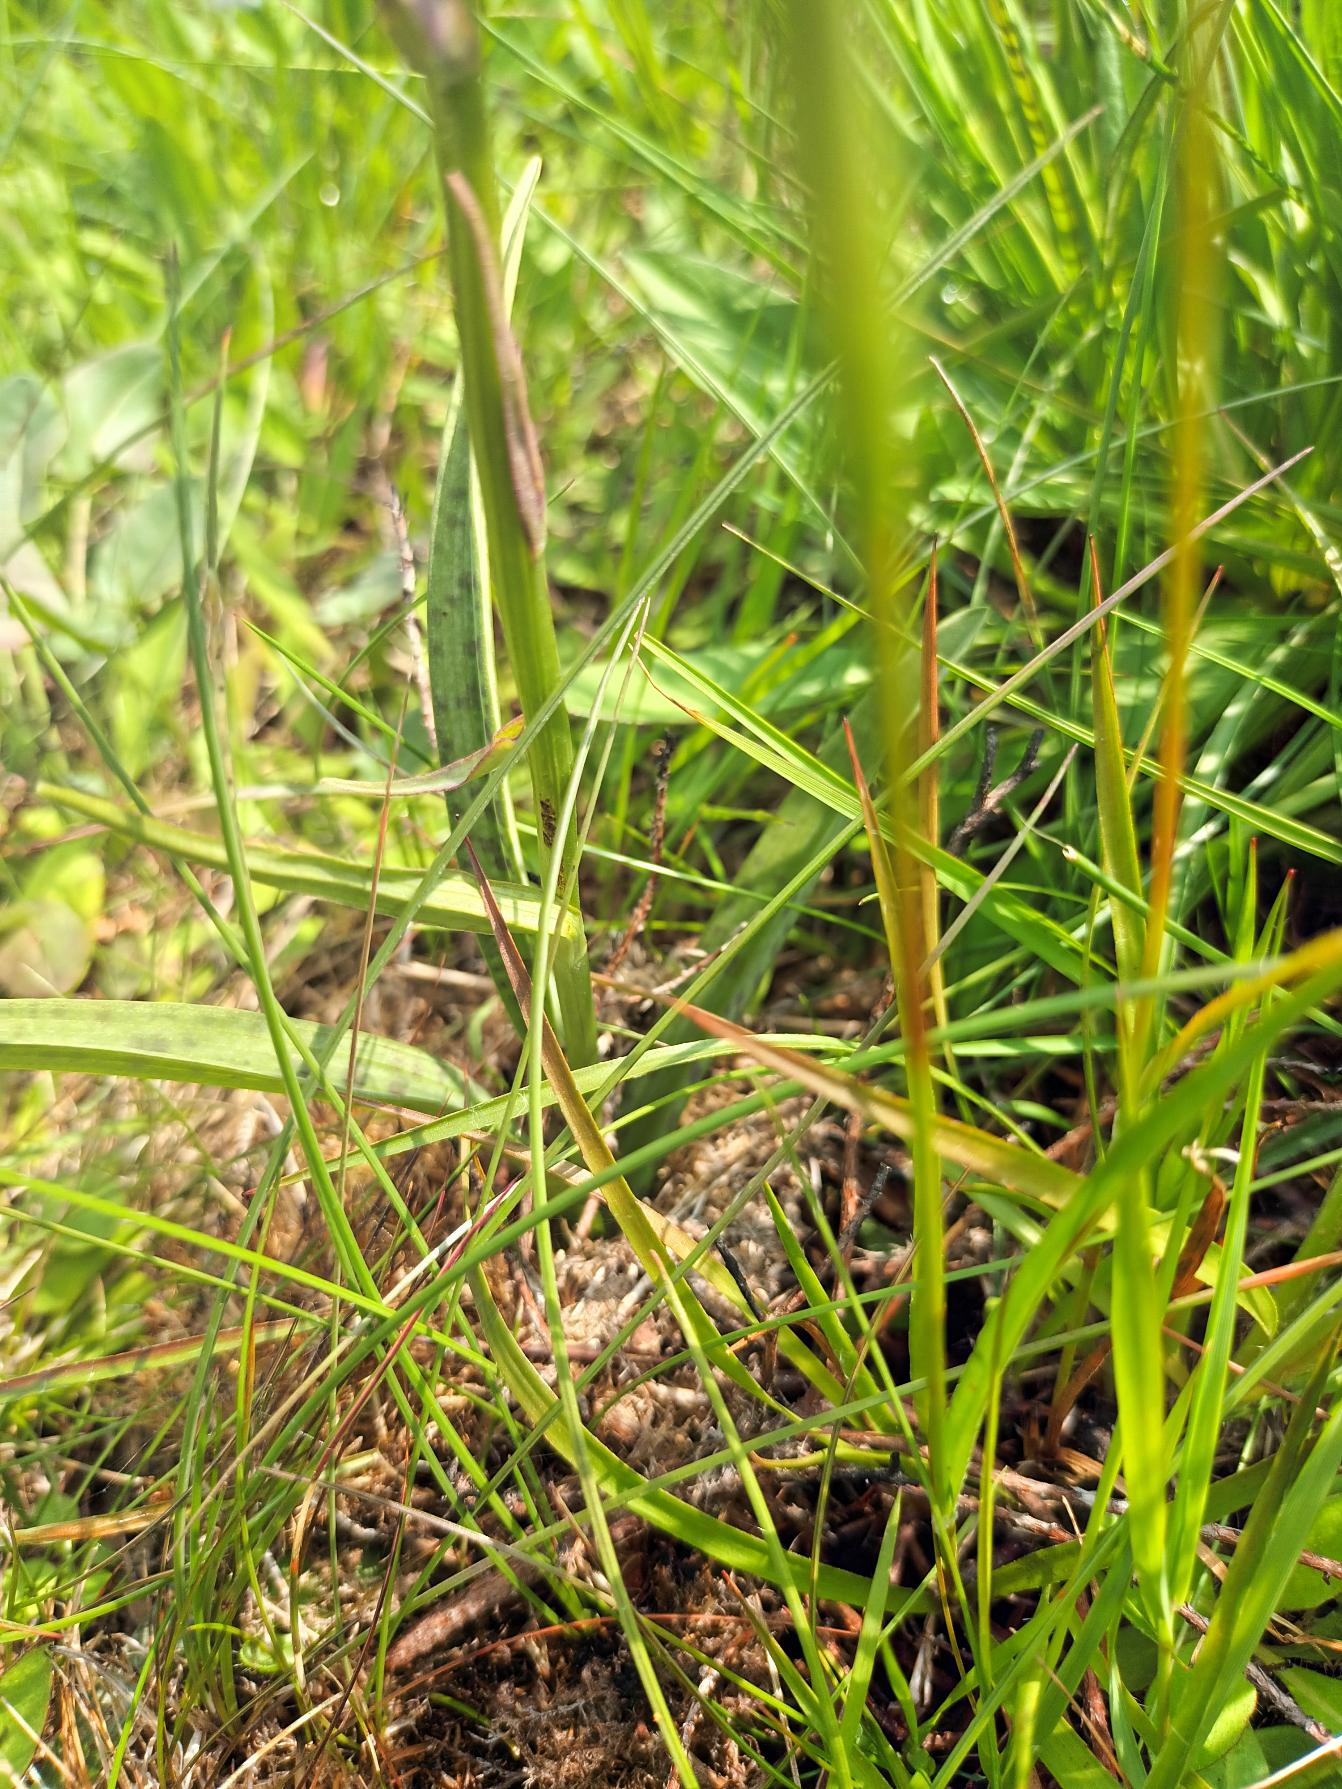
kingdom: Plantae
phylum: Tracheophyta
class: Liliopsida
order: Asparagales
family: Orchidaceae
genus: Dactylorhiza
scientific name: Dactylorhiza maculata
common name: Plettet gøgeurt
